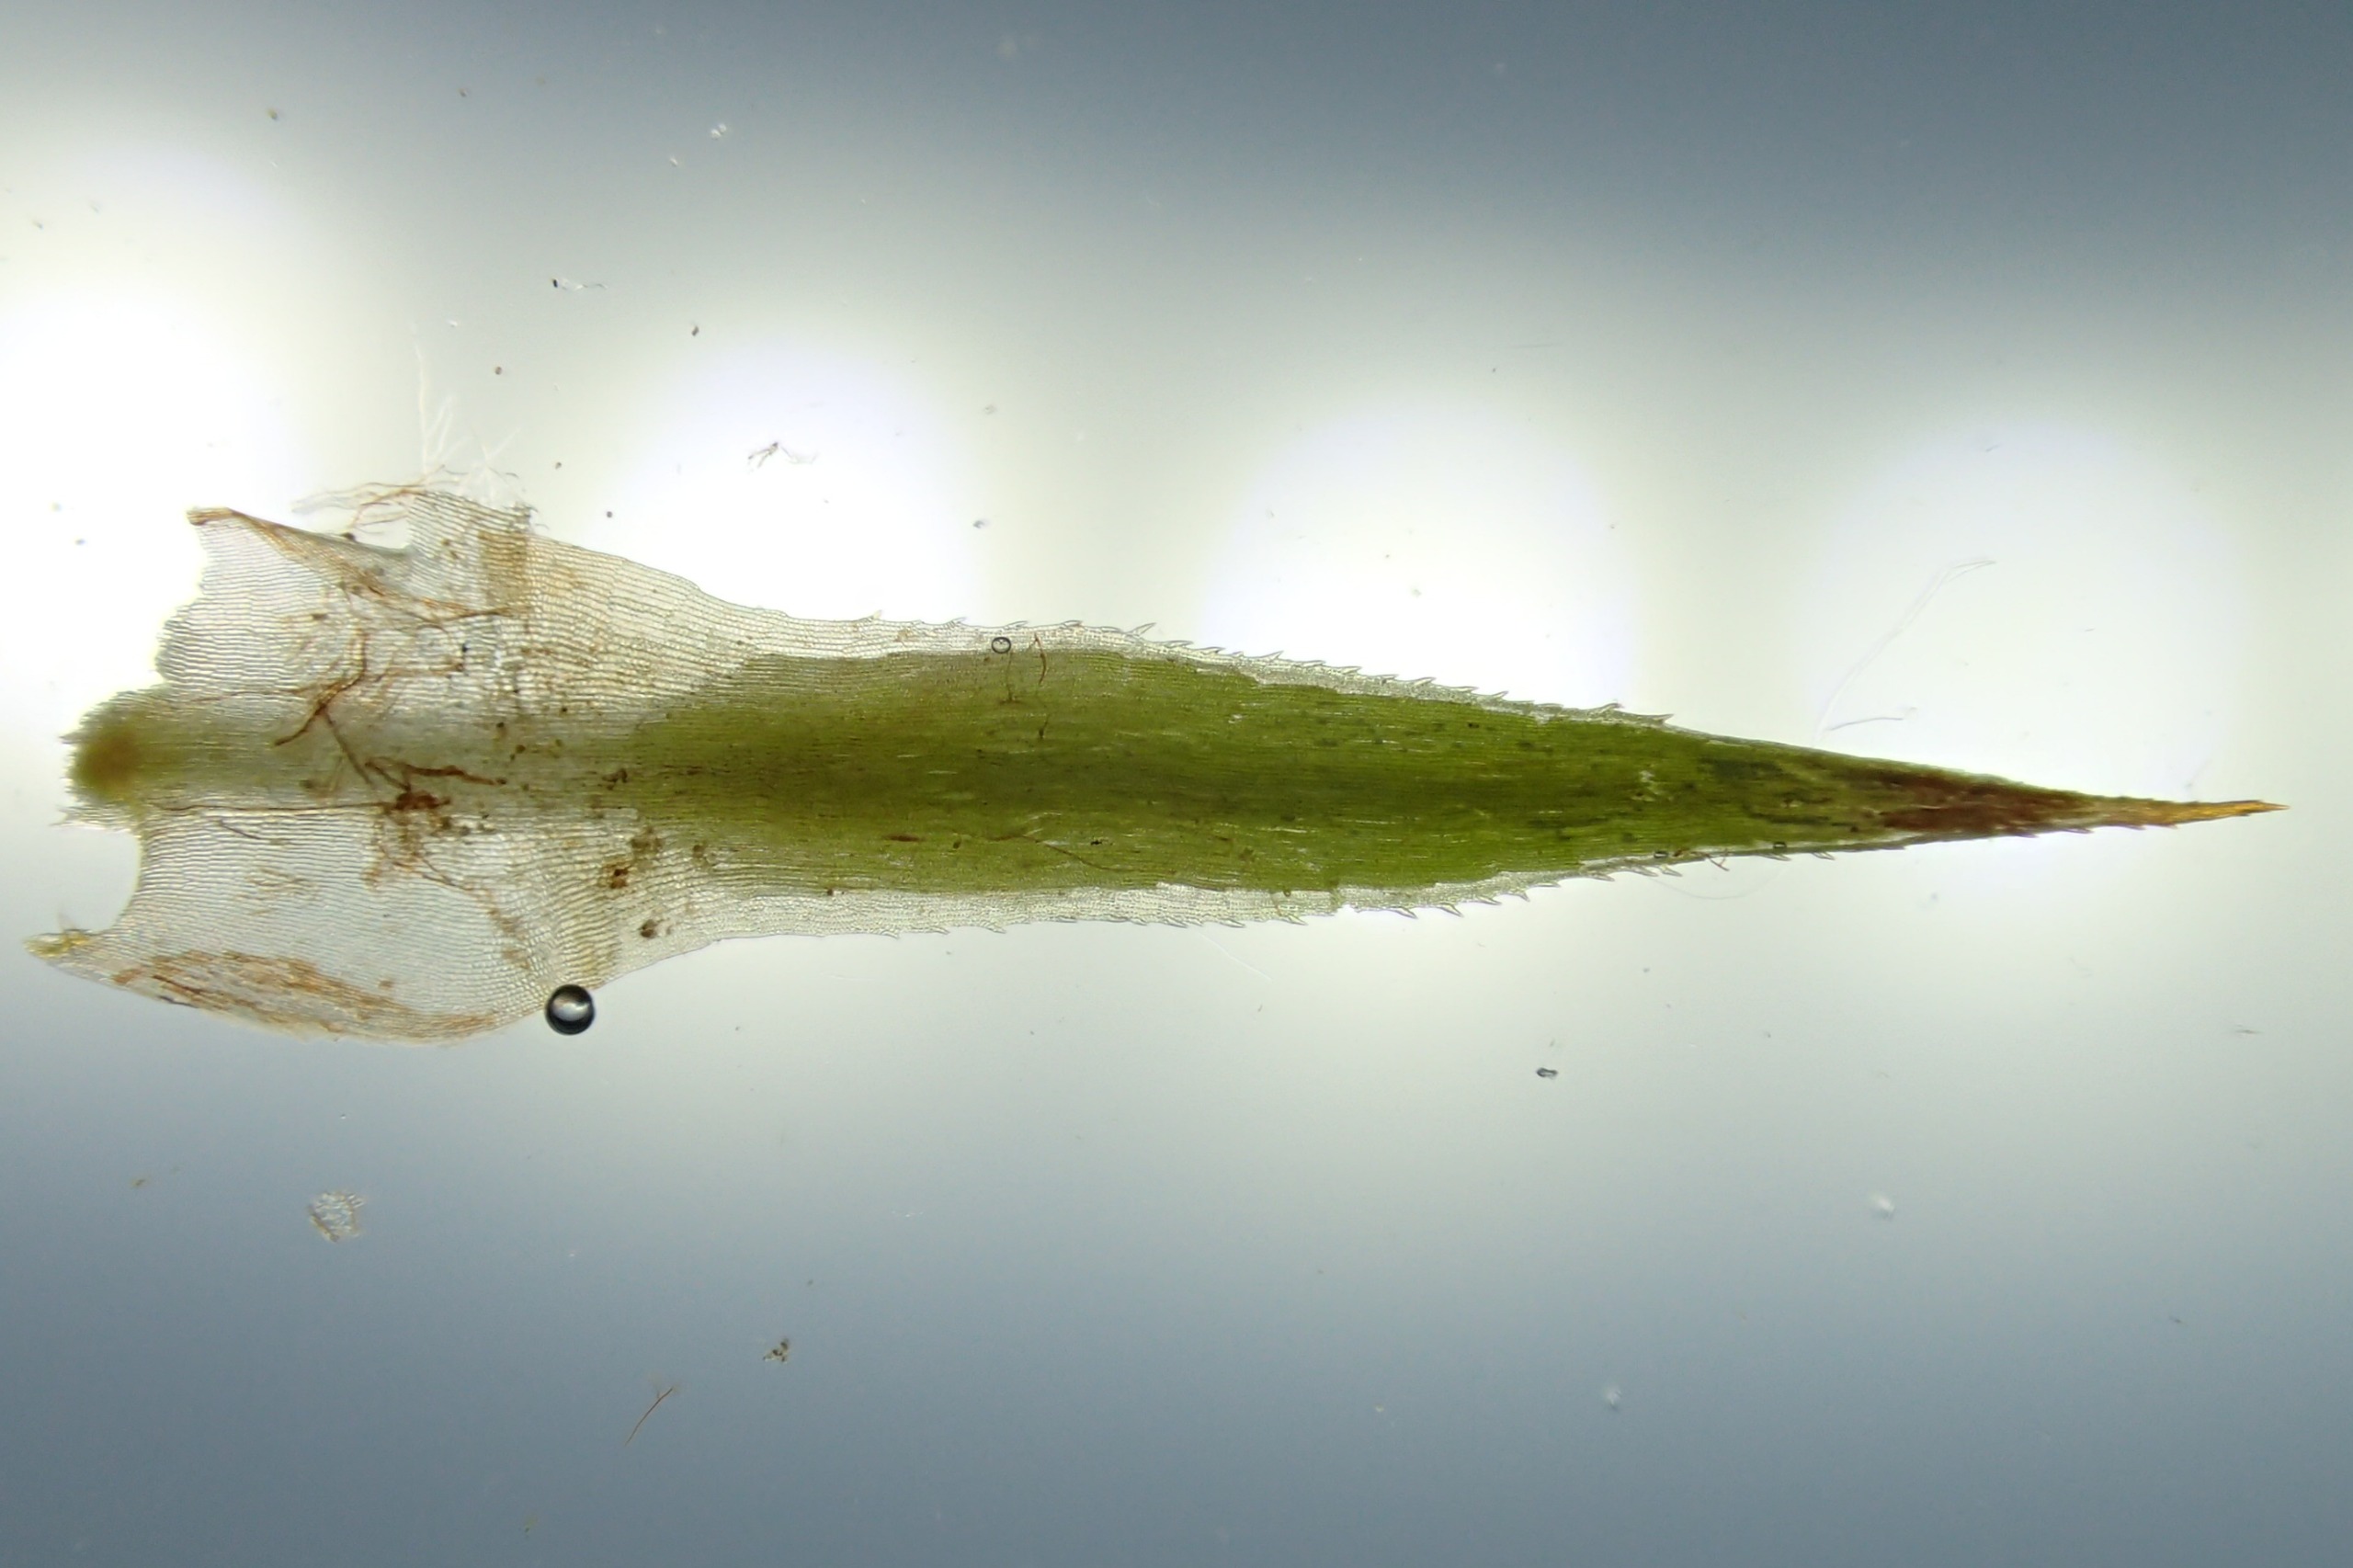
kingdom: Plantae
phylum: Bryophyta
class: Polytrichopsida
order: Polytrichales
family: Polytrichaceae
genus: Polytrichum
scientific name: Polytrichum longisetum
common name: Mose-jomfruhår
